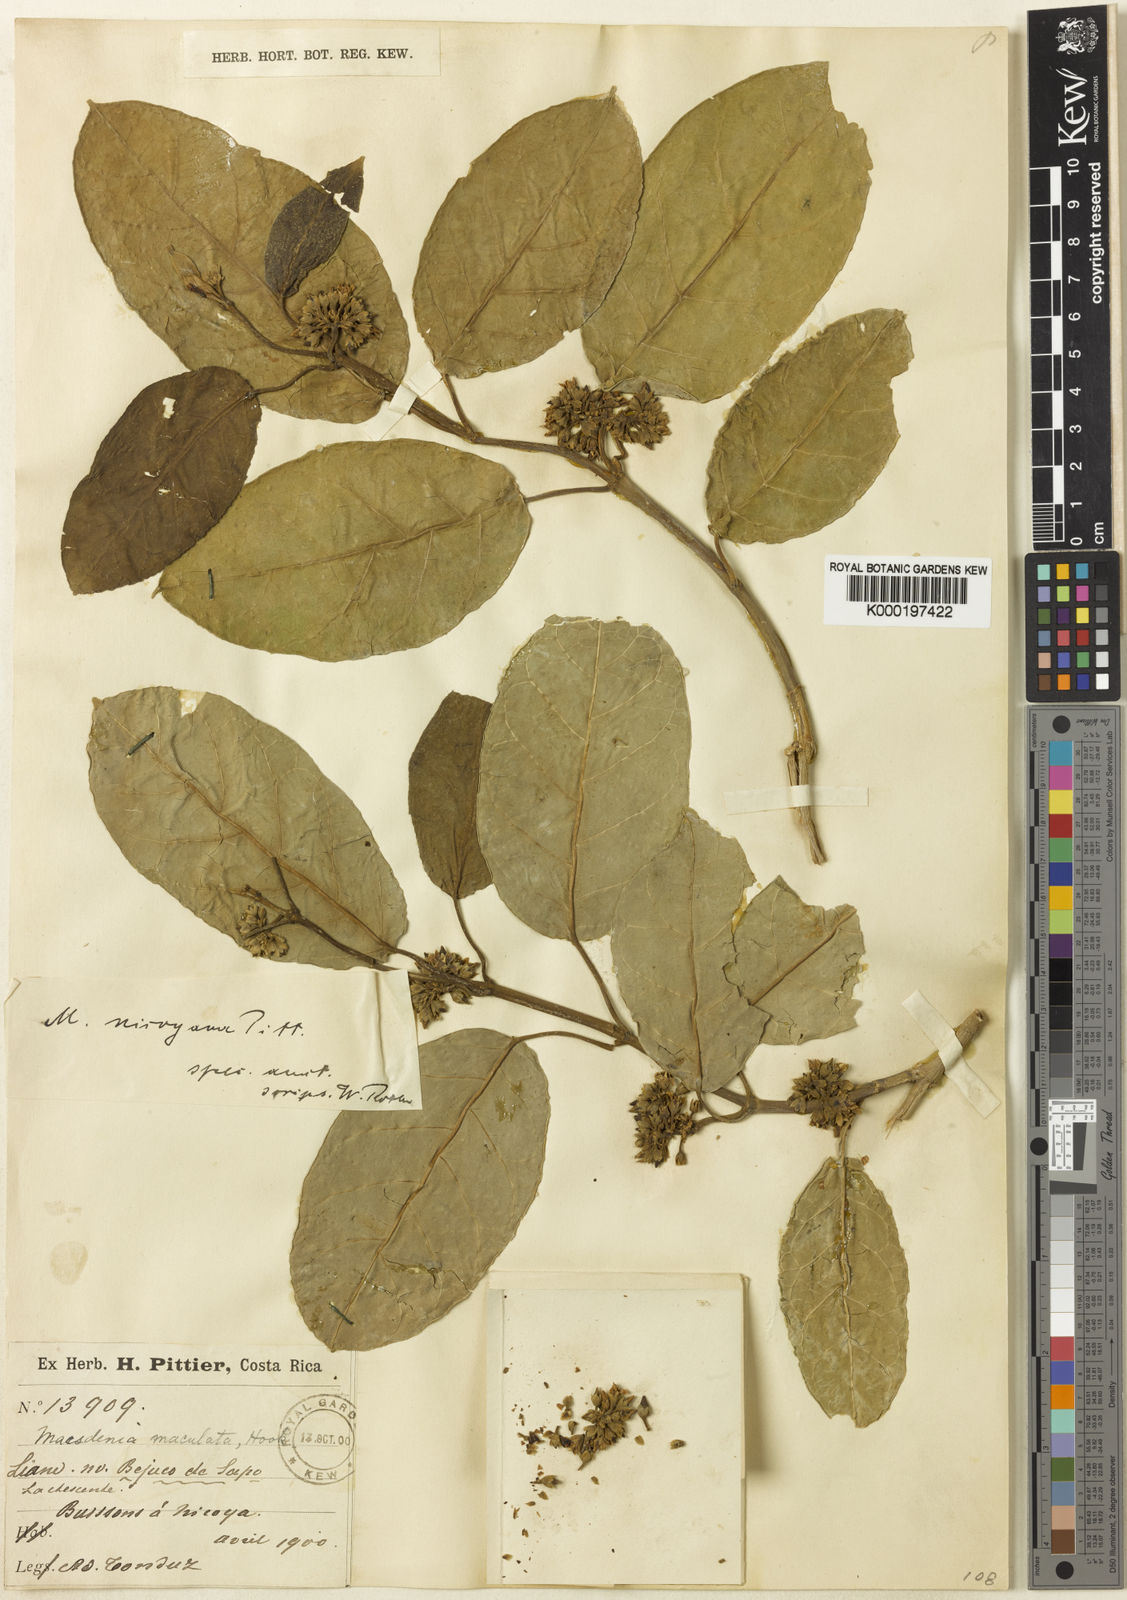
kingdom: Plantae
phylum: Tracheophyta
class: Magnoliopsida
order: Gentianales
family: Apocynaceae
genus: Ruehssia
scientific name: Ruehssia nicoyana
